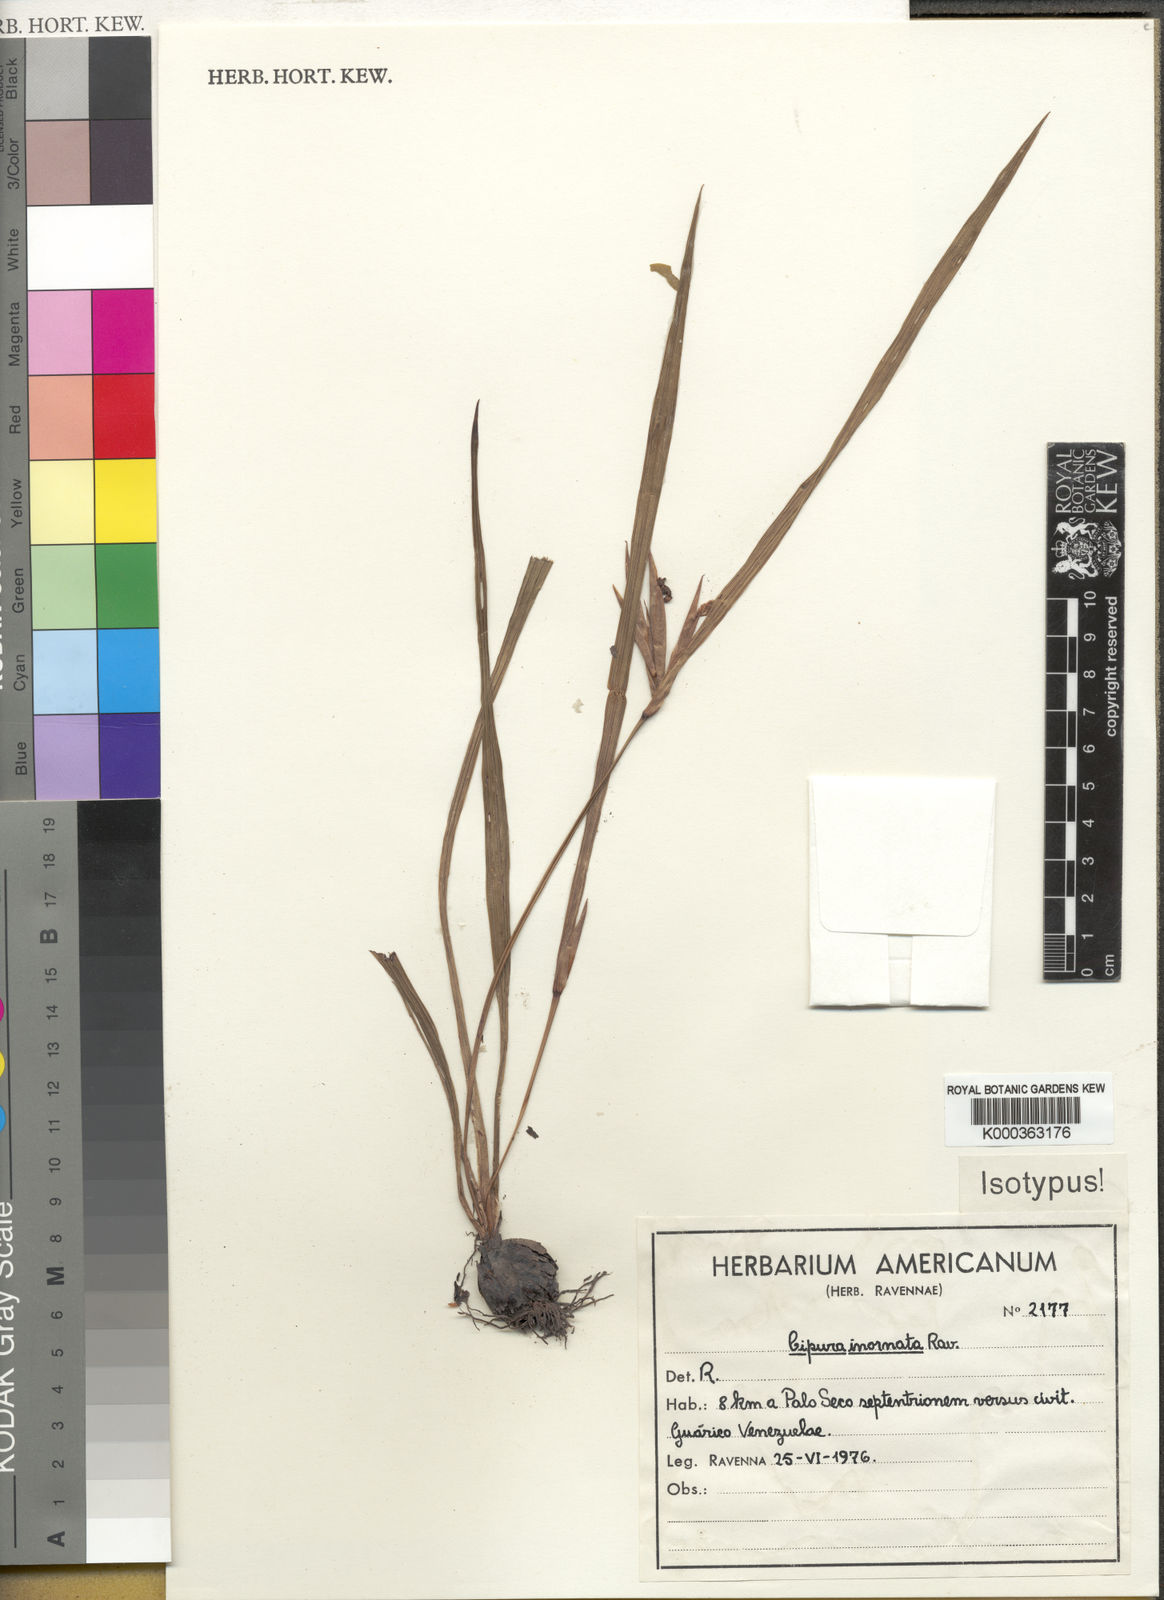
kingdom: Plantae
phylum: Tracheophyta
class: Liliopsida
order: Asparagales
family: Iridaceae
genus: Cipura
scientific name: Cipura campanulata
